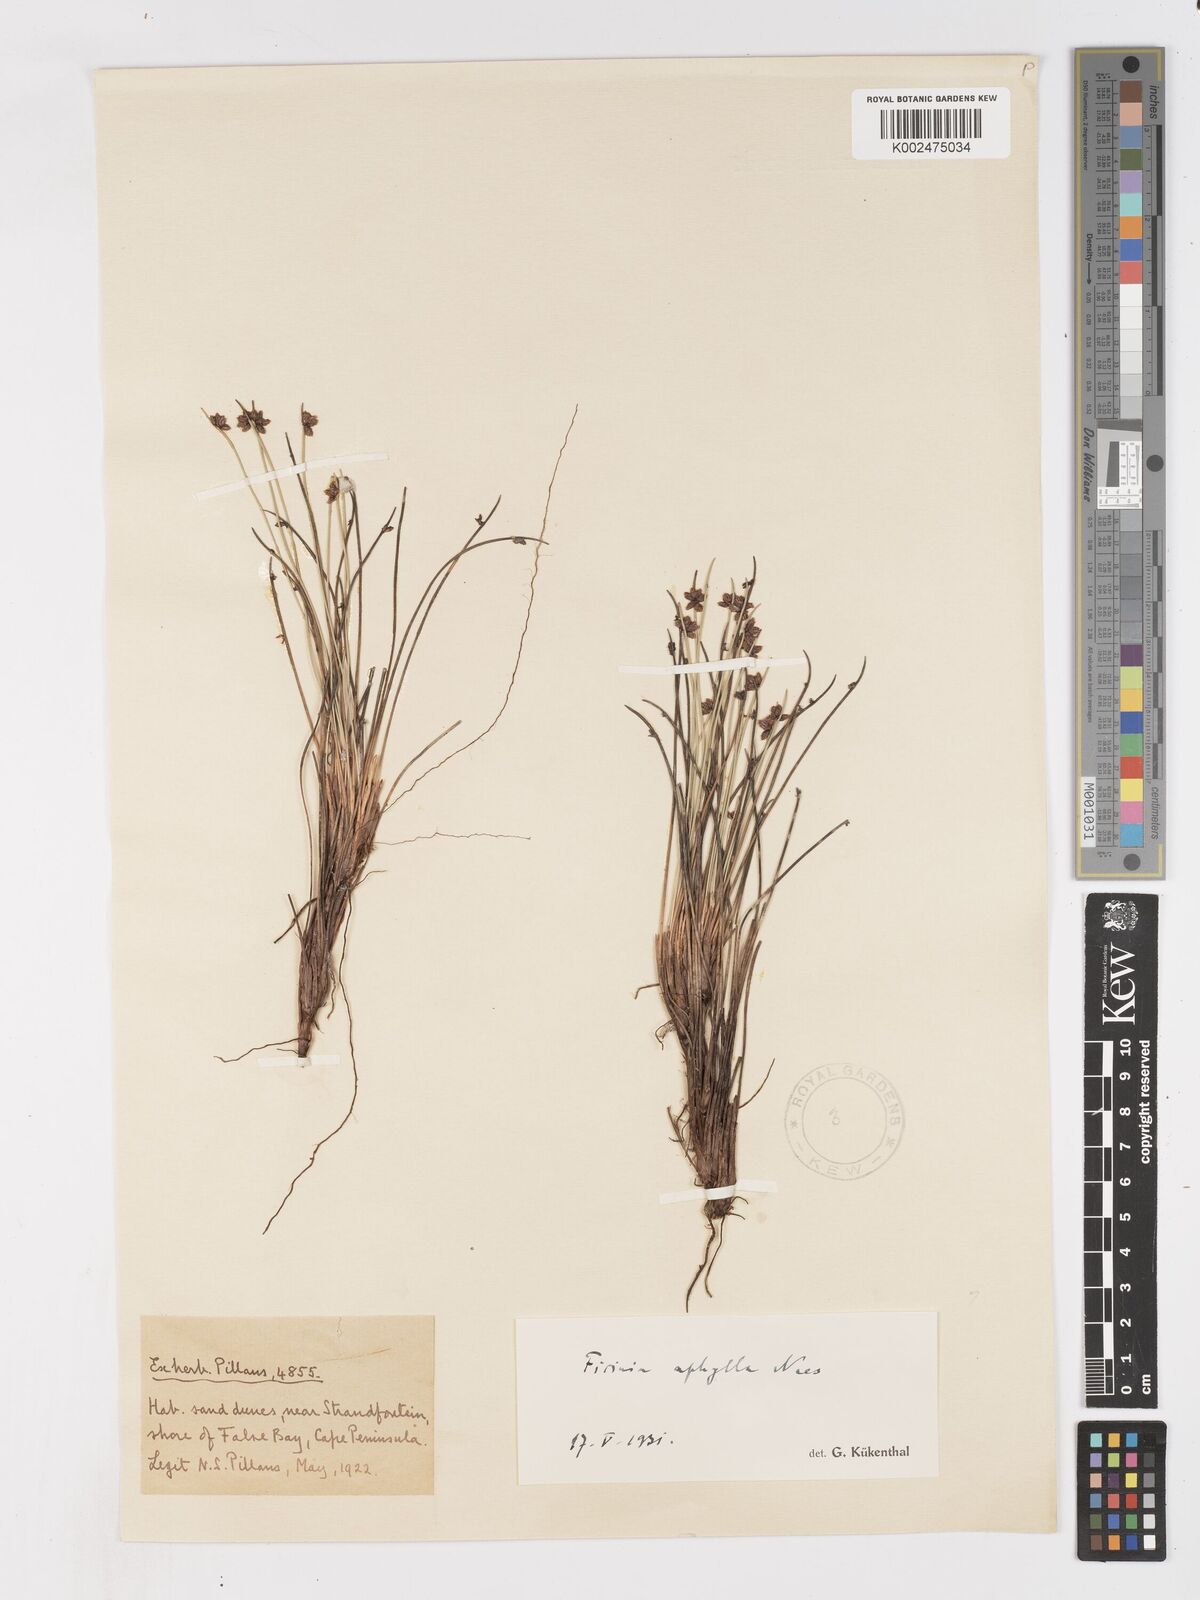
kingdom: Plantae
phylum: Tracheophyta
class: Liliopsida
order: Poales
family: Cyperaceae
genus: Ficinia
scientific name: Ficinia lateralis
